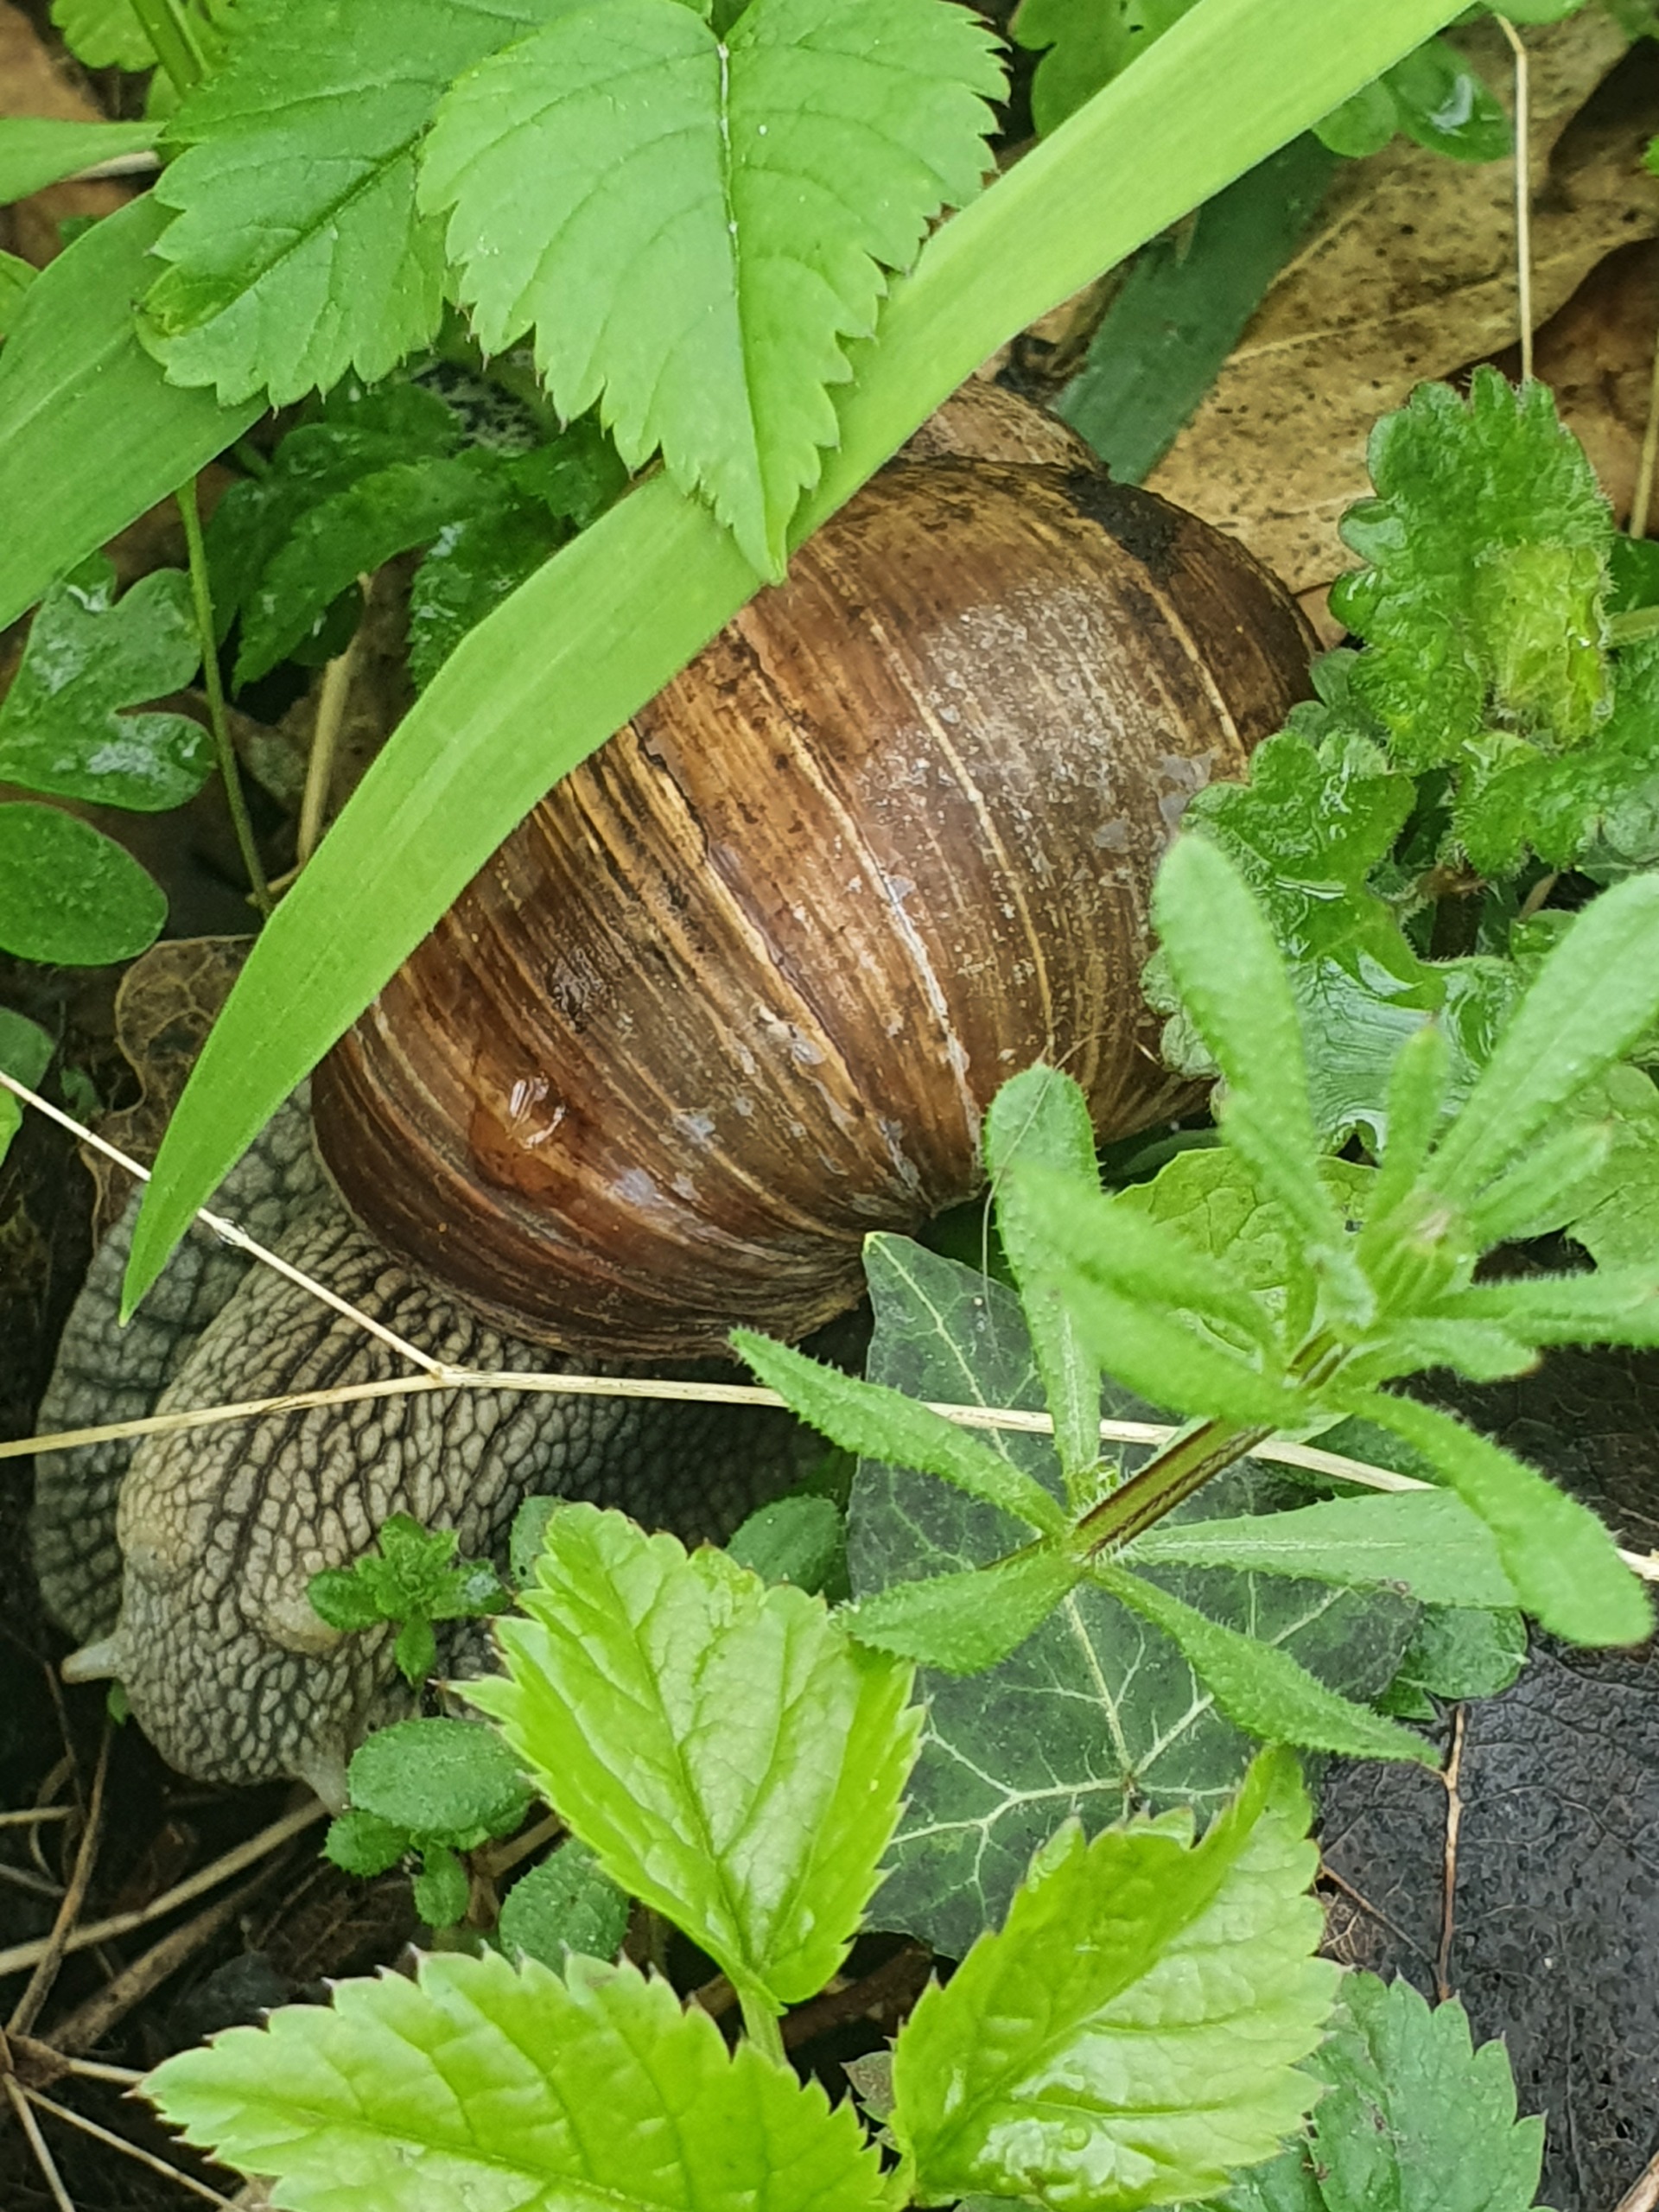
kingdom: Animalia
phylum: Mollusca
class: Gastropoda
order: Stylommatophora
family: Helicidae
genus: Helix
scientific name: Helix pomatia
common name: Vinbjergsnegl
